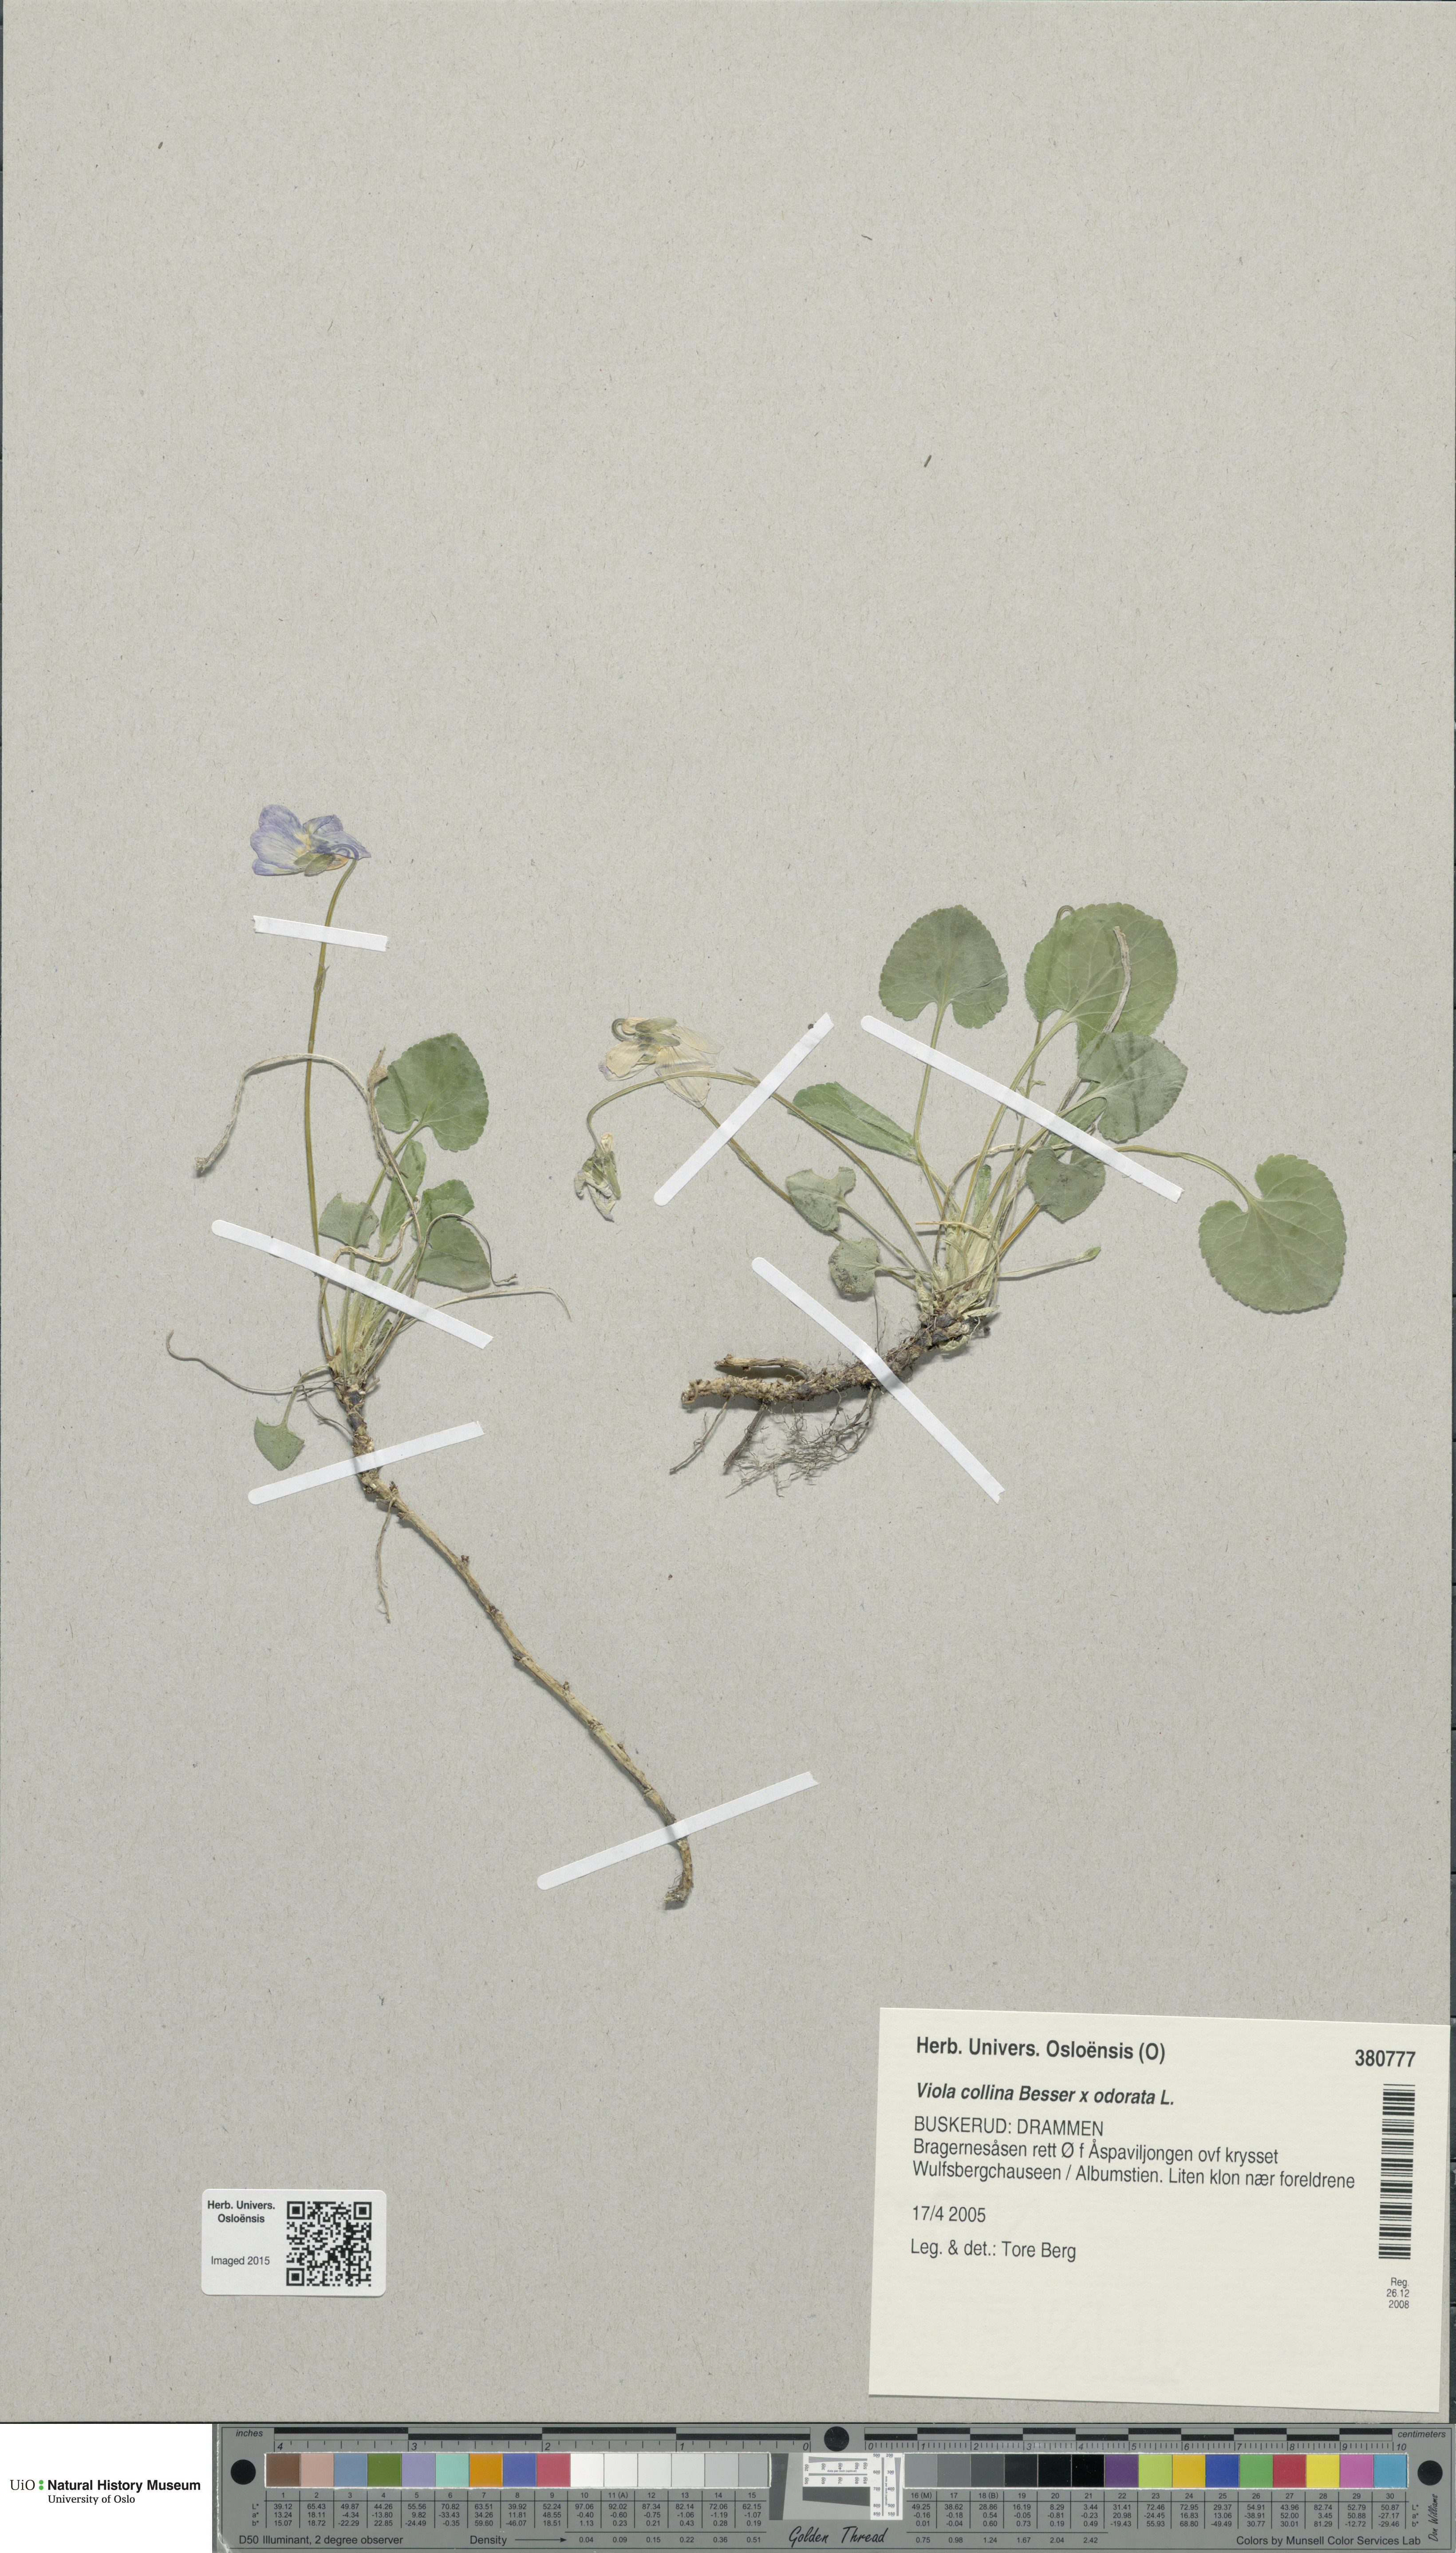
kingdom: Plantae
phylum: Tracheophyta
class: Magnoliopsida
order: Malpighiales
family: Violaceae
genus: Viola
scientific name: Viola
